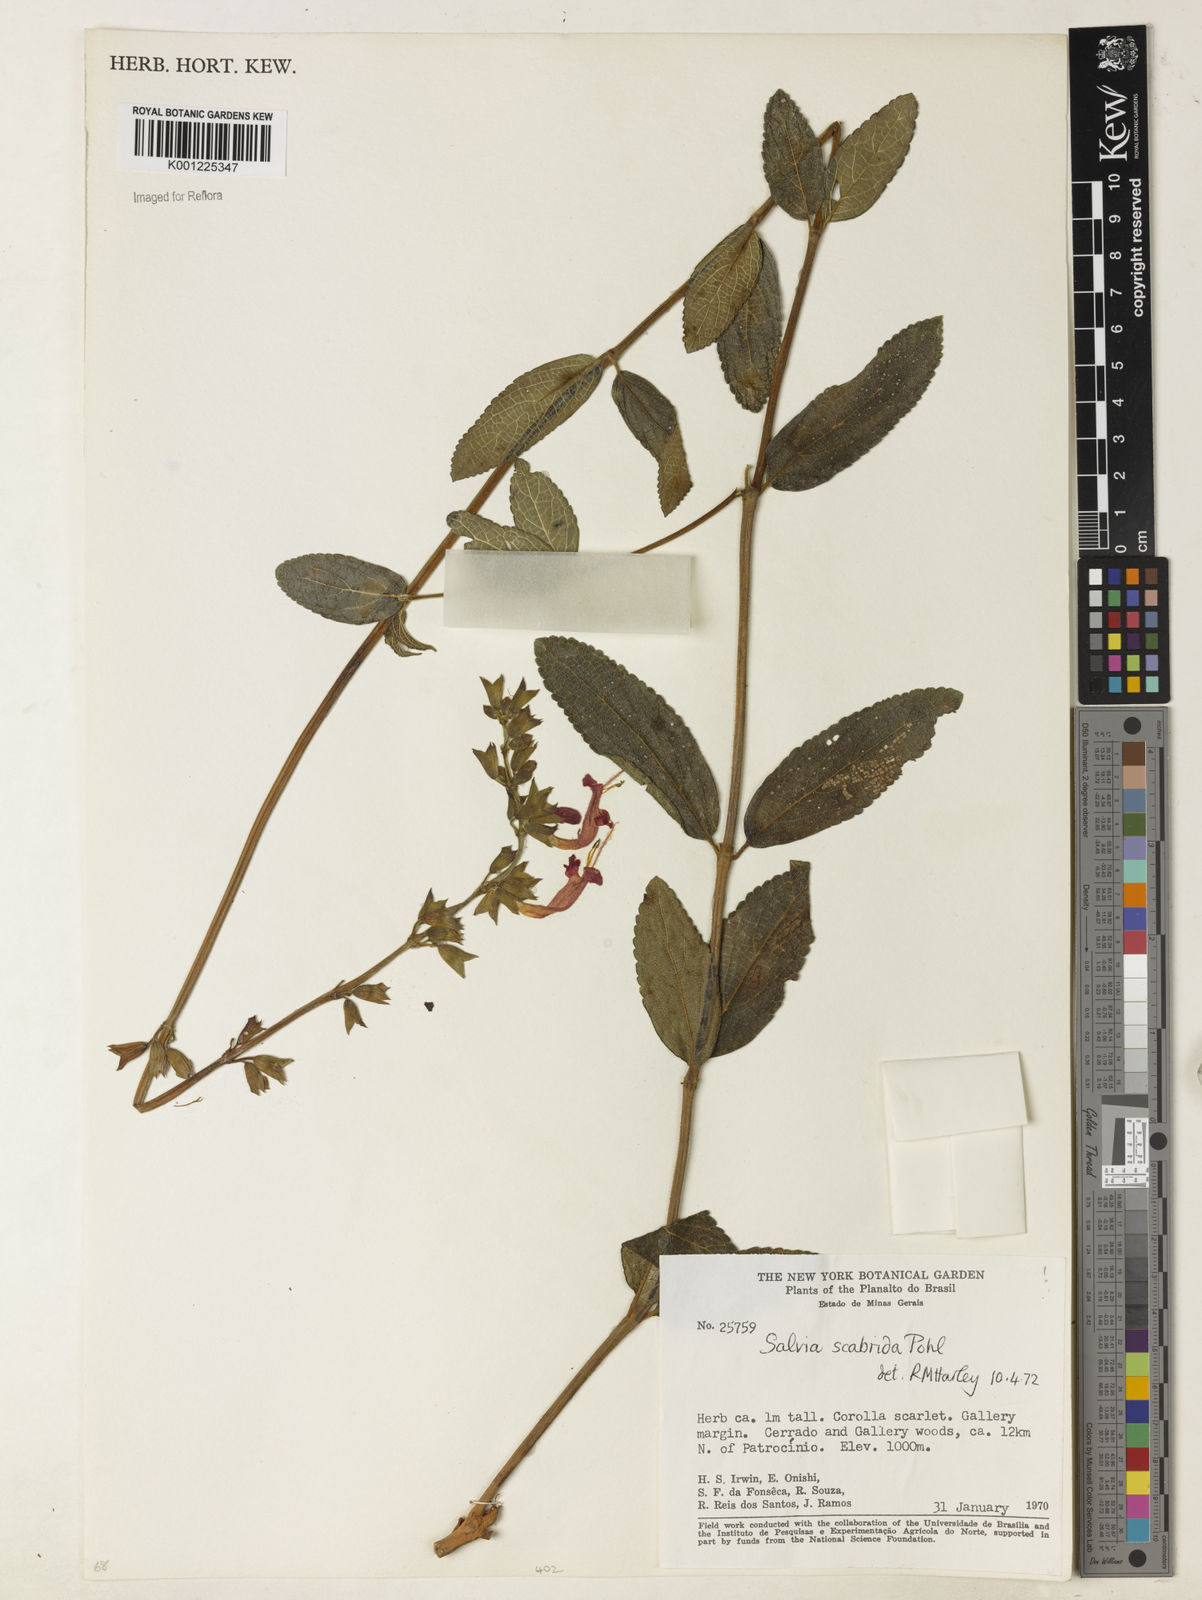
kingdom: Plantae
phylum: Tracheophyta
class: Magnoliopsida
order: Lamiales
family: Lamiaceae
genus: Salvia
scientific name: Salvia scabrida
